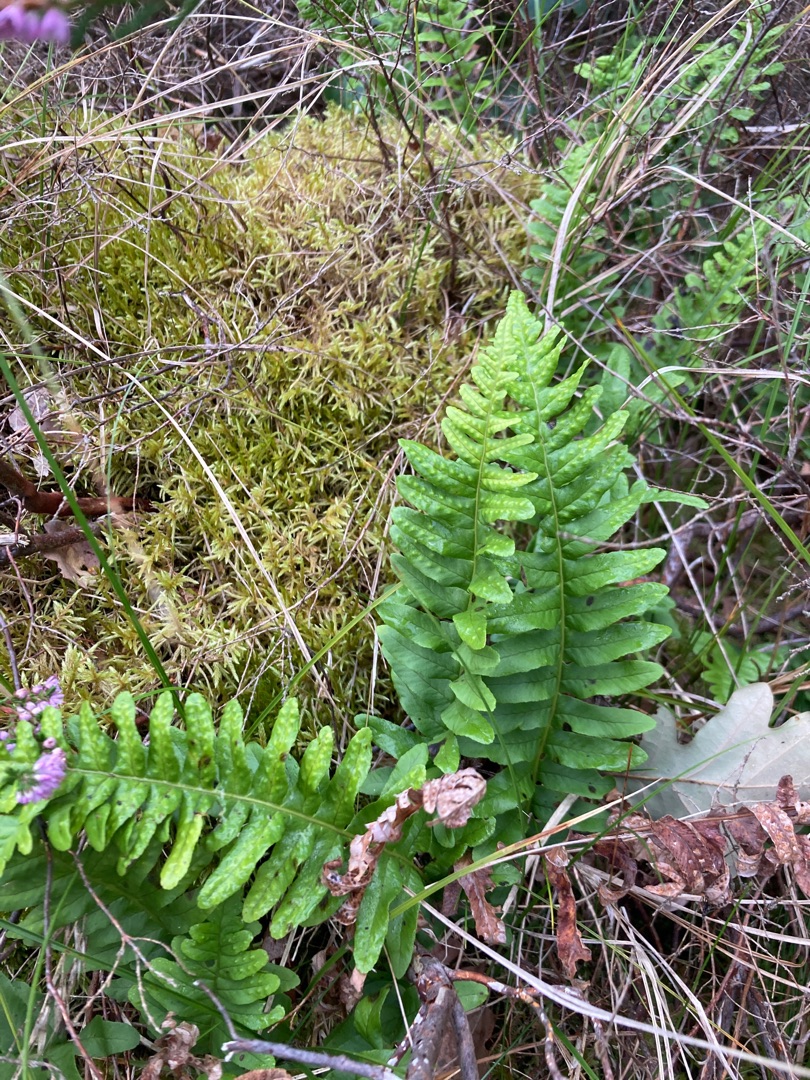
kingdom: Plantae
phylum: Tracheophyta
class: Polypodiopsida
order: Polypodiales
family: Polypodiaceae
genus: Polypodium
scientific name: Polypodium vulgare
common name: Almindelig engelsød
